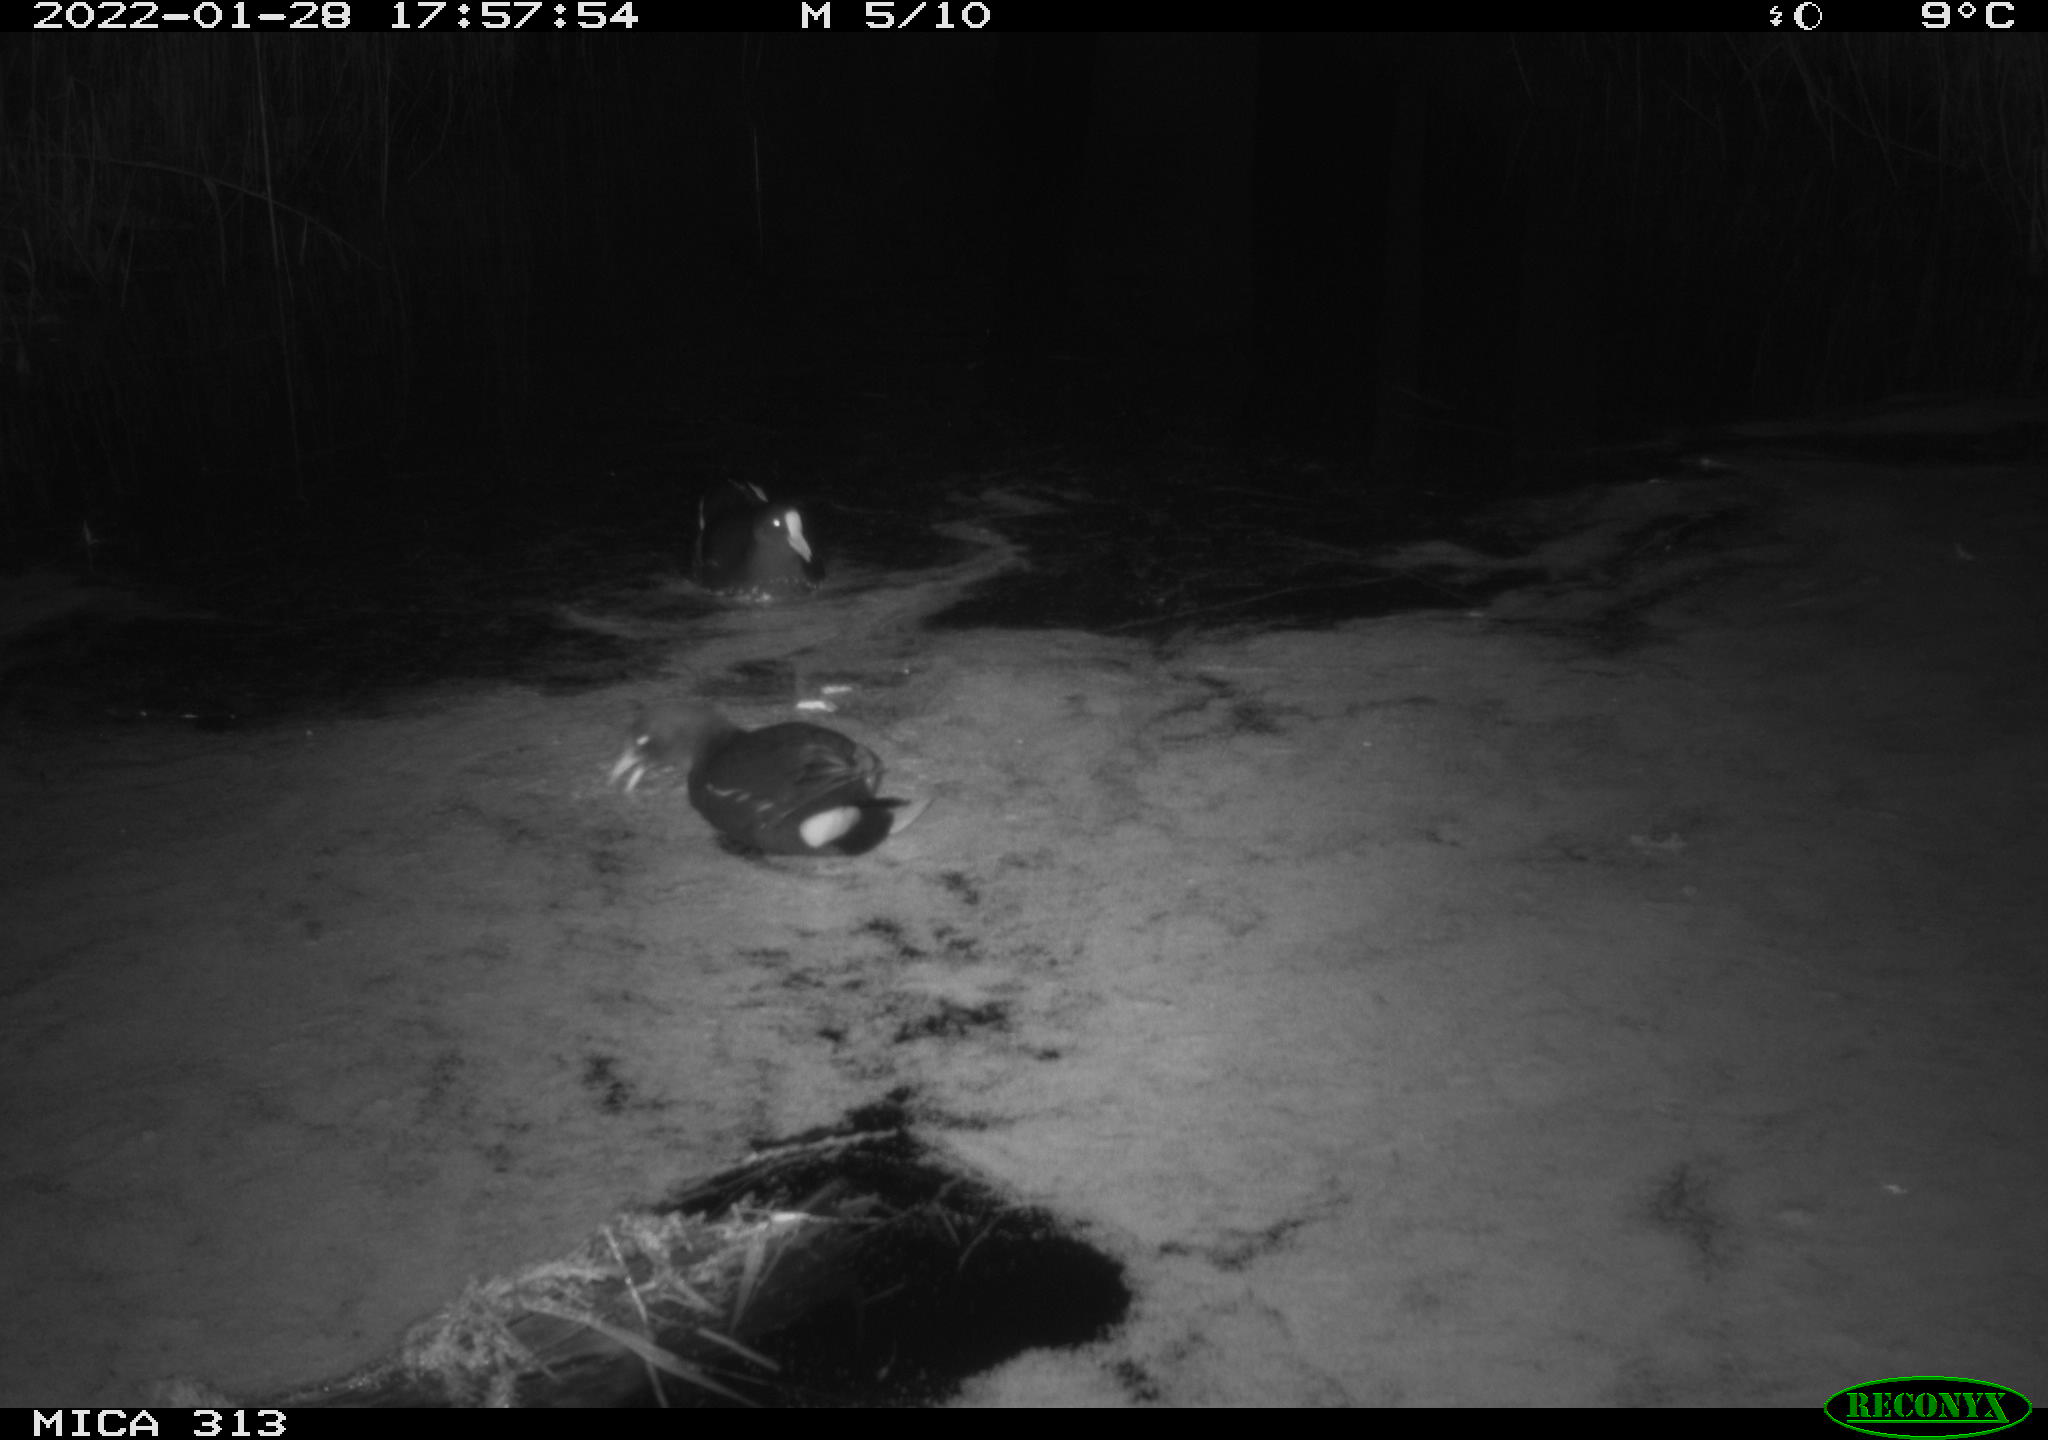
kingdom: Animalia
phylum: Chordata
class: Aves
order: Gruiformes
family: Rallidae
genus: Gallinula
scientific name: Gallinula chloropus
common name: Common moorhen
